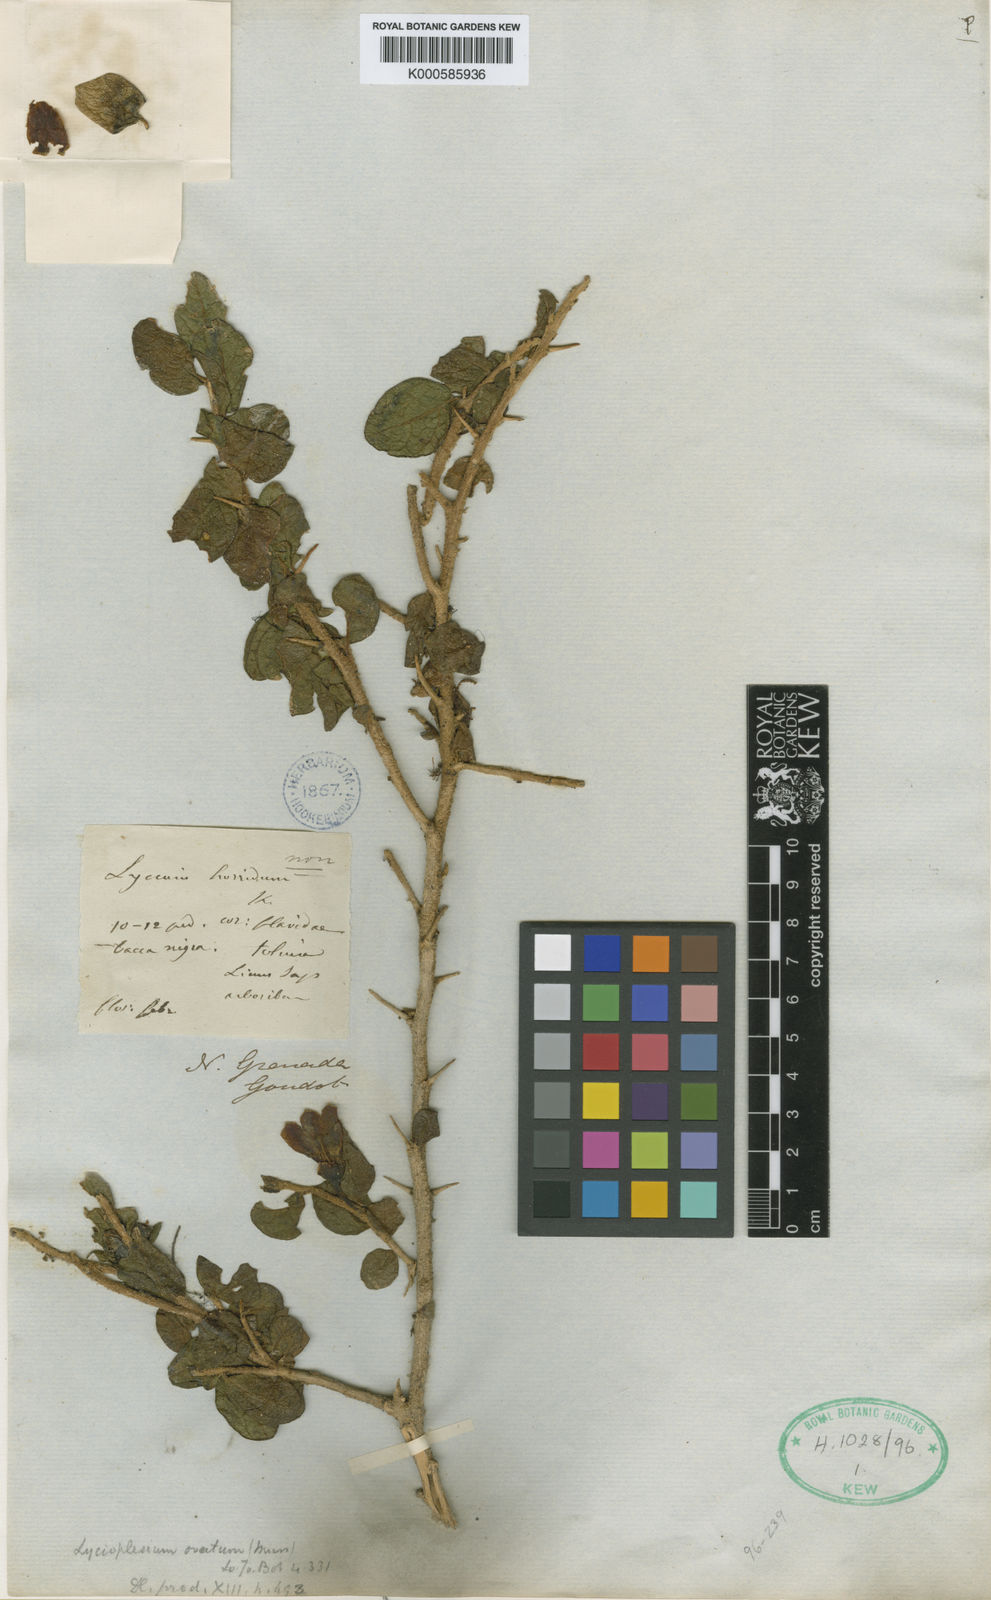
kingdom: Plantae
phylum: Tracheophyta
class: Magnoliopsida
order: Solanales
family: Solanaceae
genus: Iochroma
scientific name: Iochroma Acnistus spec
